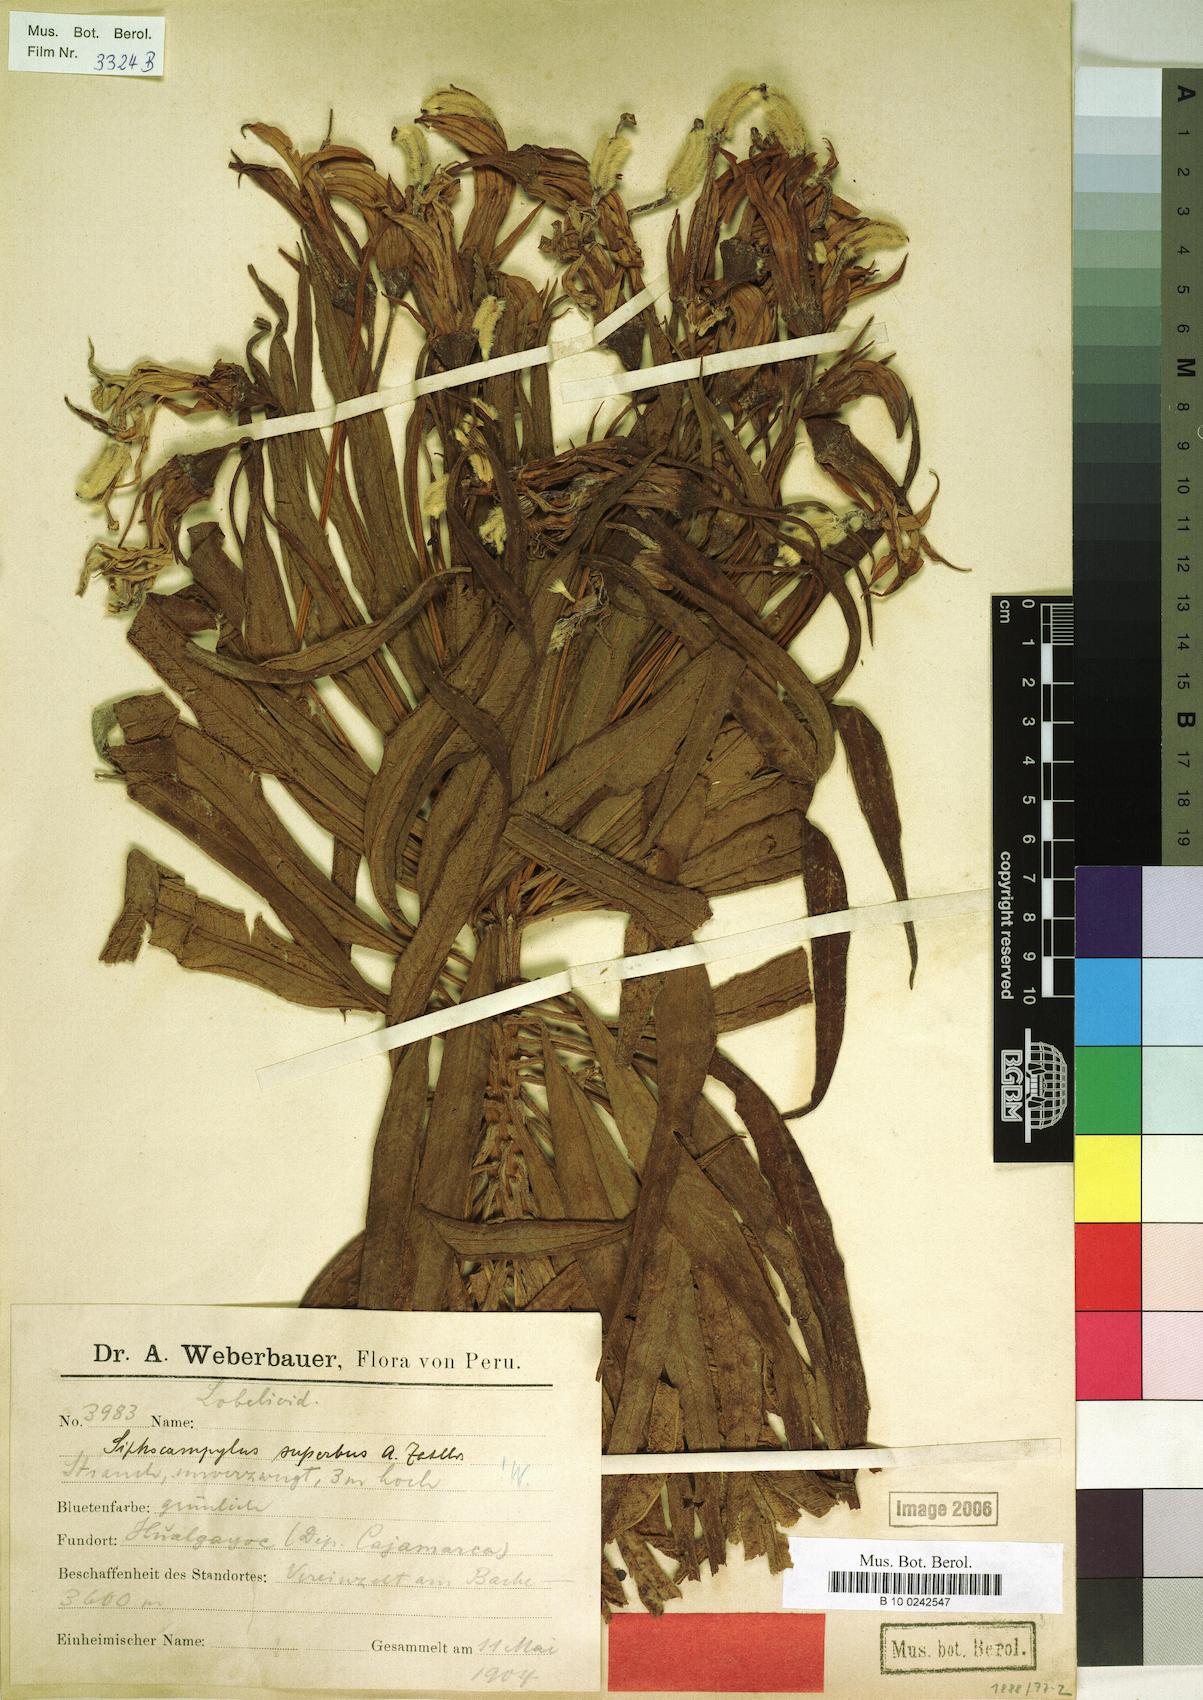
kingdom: Plantae
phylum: Tracheophyta
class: Magnoliopsida
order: Asterales
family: Campanulaceae
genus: Siphocampylus
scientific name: Siphocampylus jelskii
